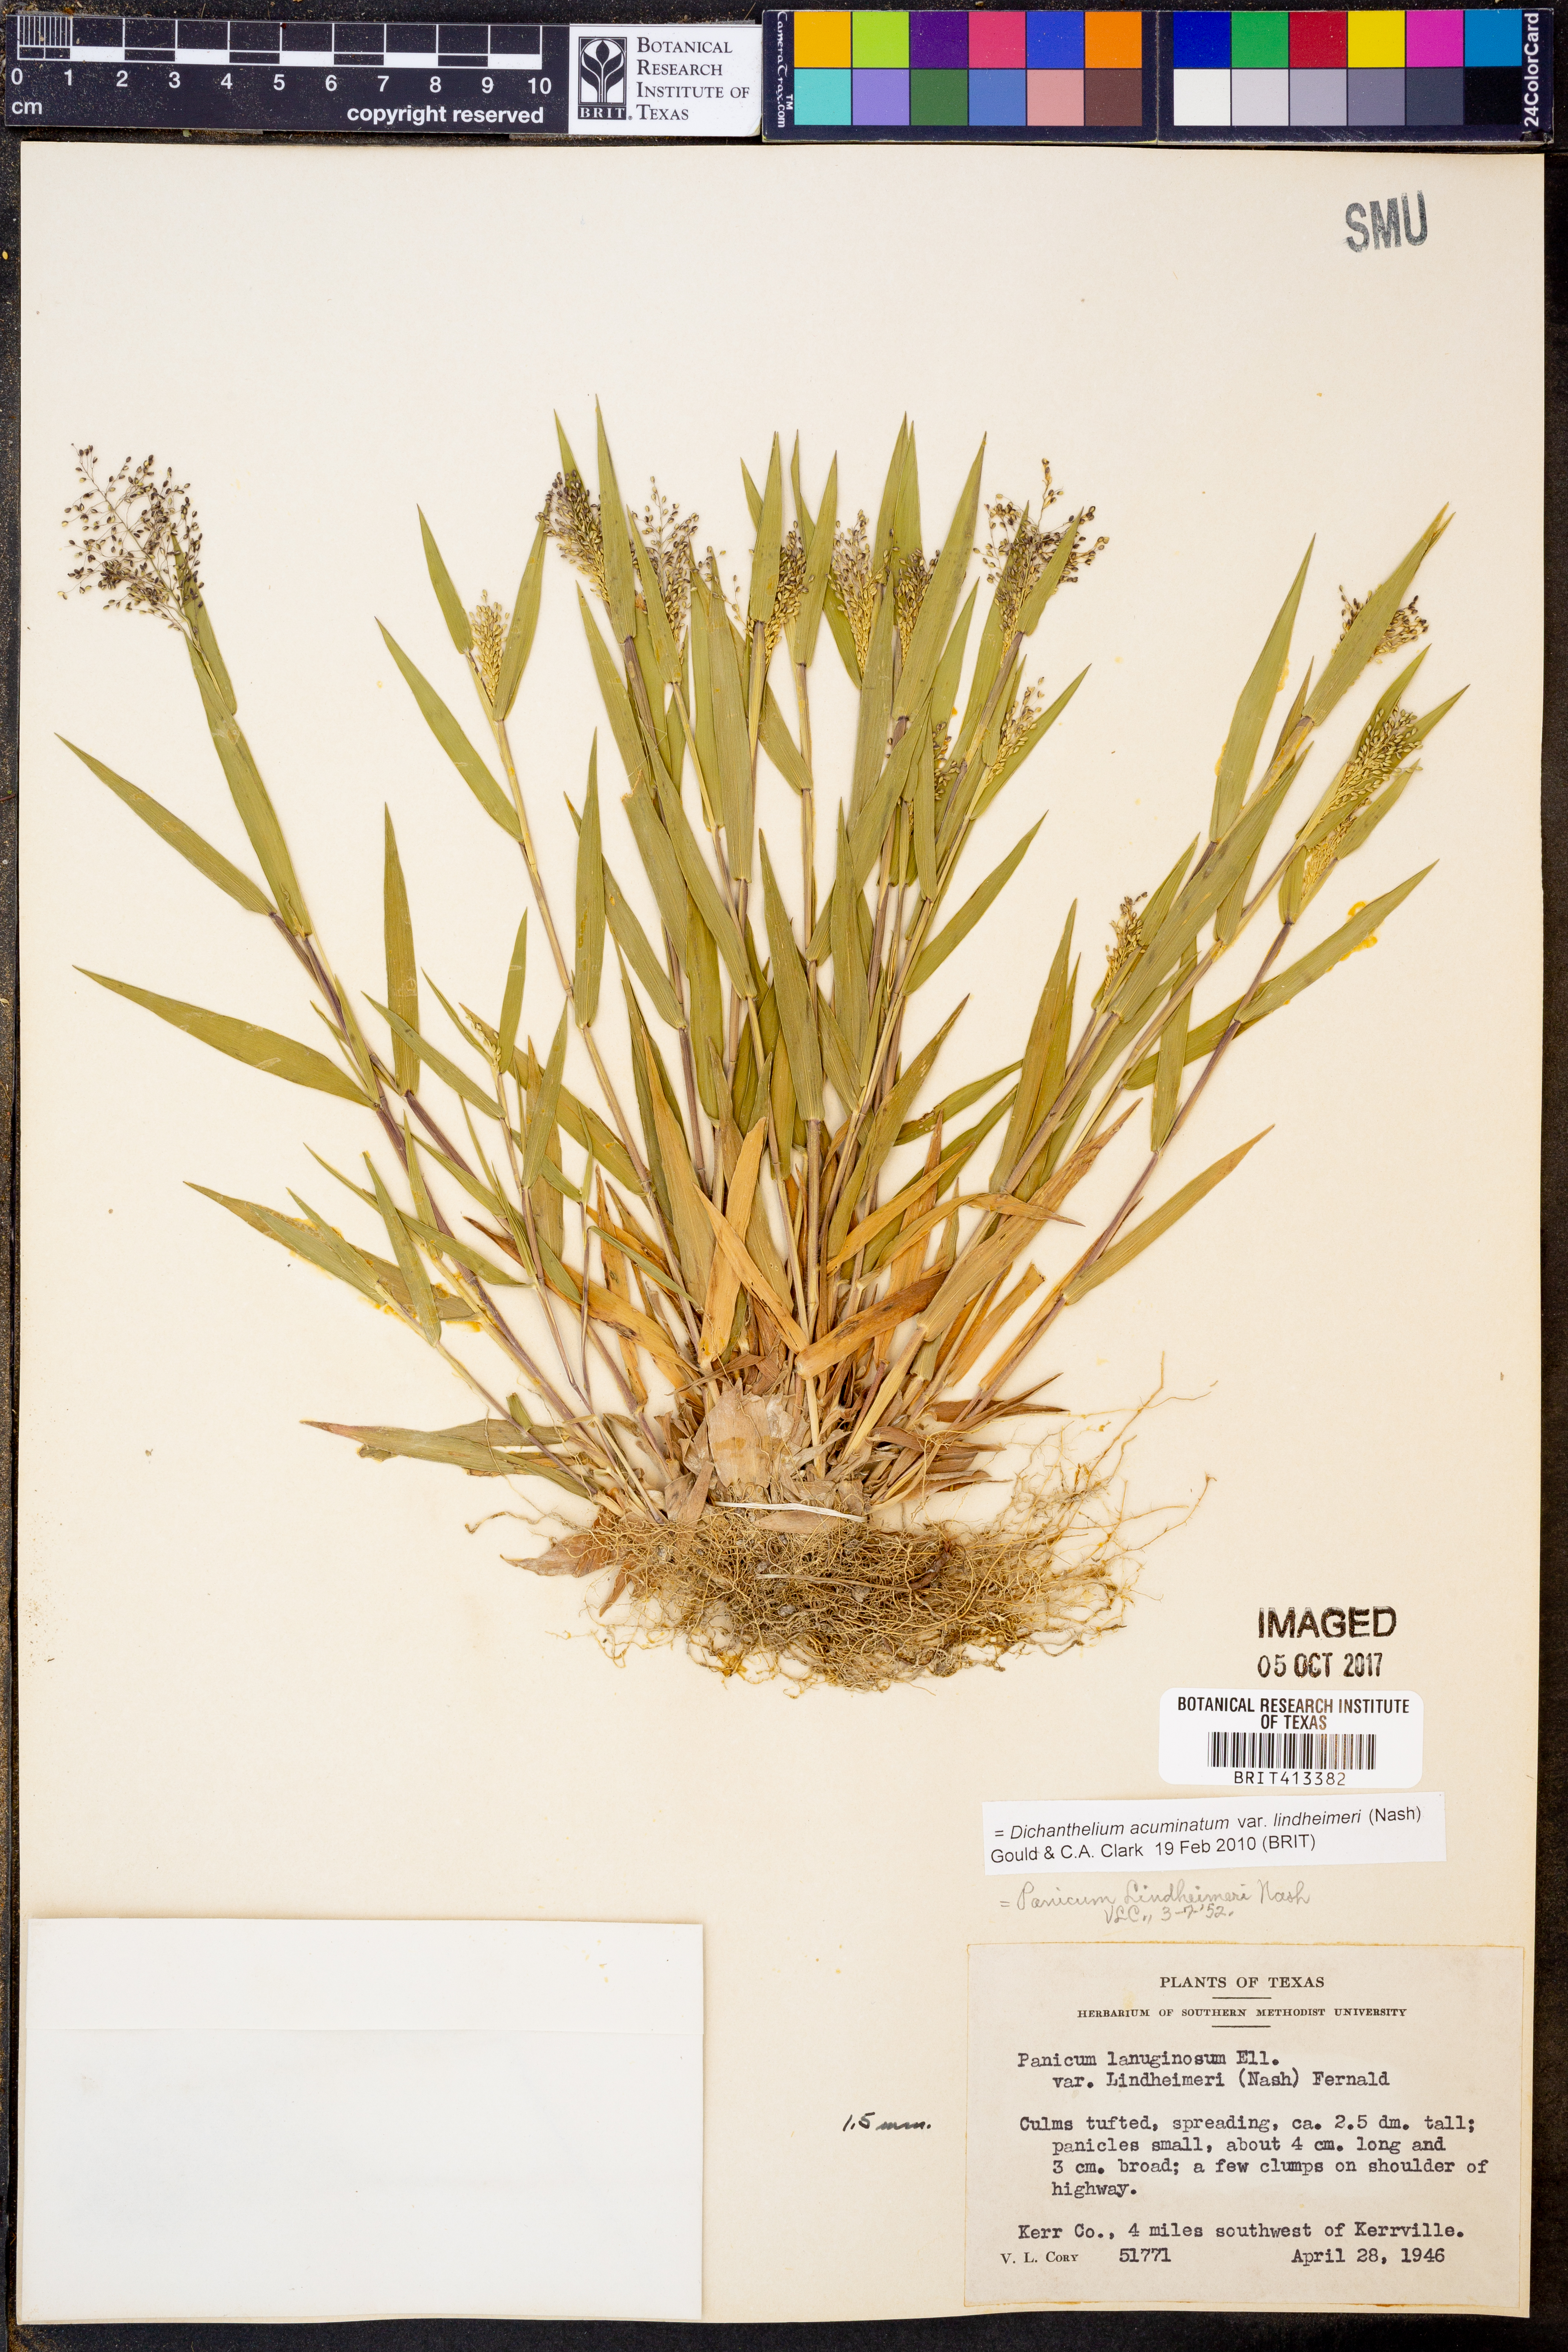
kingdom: Plantae
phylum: Tracheophyta
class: Liliopsida
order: Poales
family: Poaceae
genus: Dichanthelium
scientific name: Dichanthelium lindheimeri
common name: Lindheimer's panicgrass
